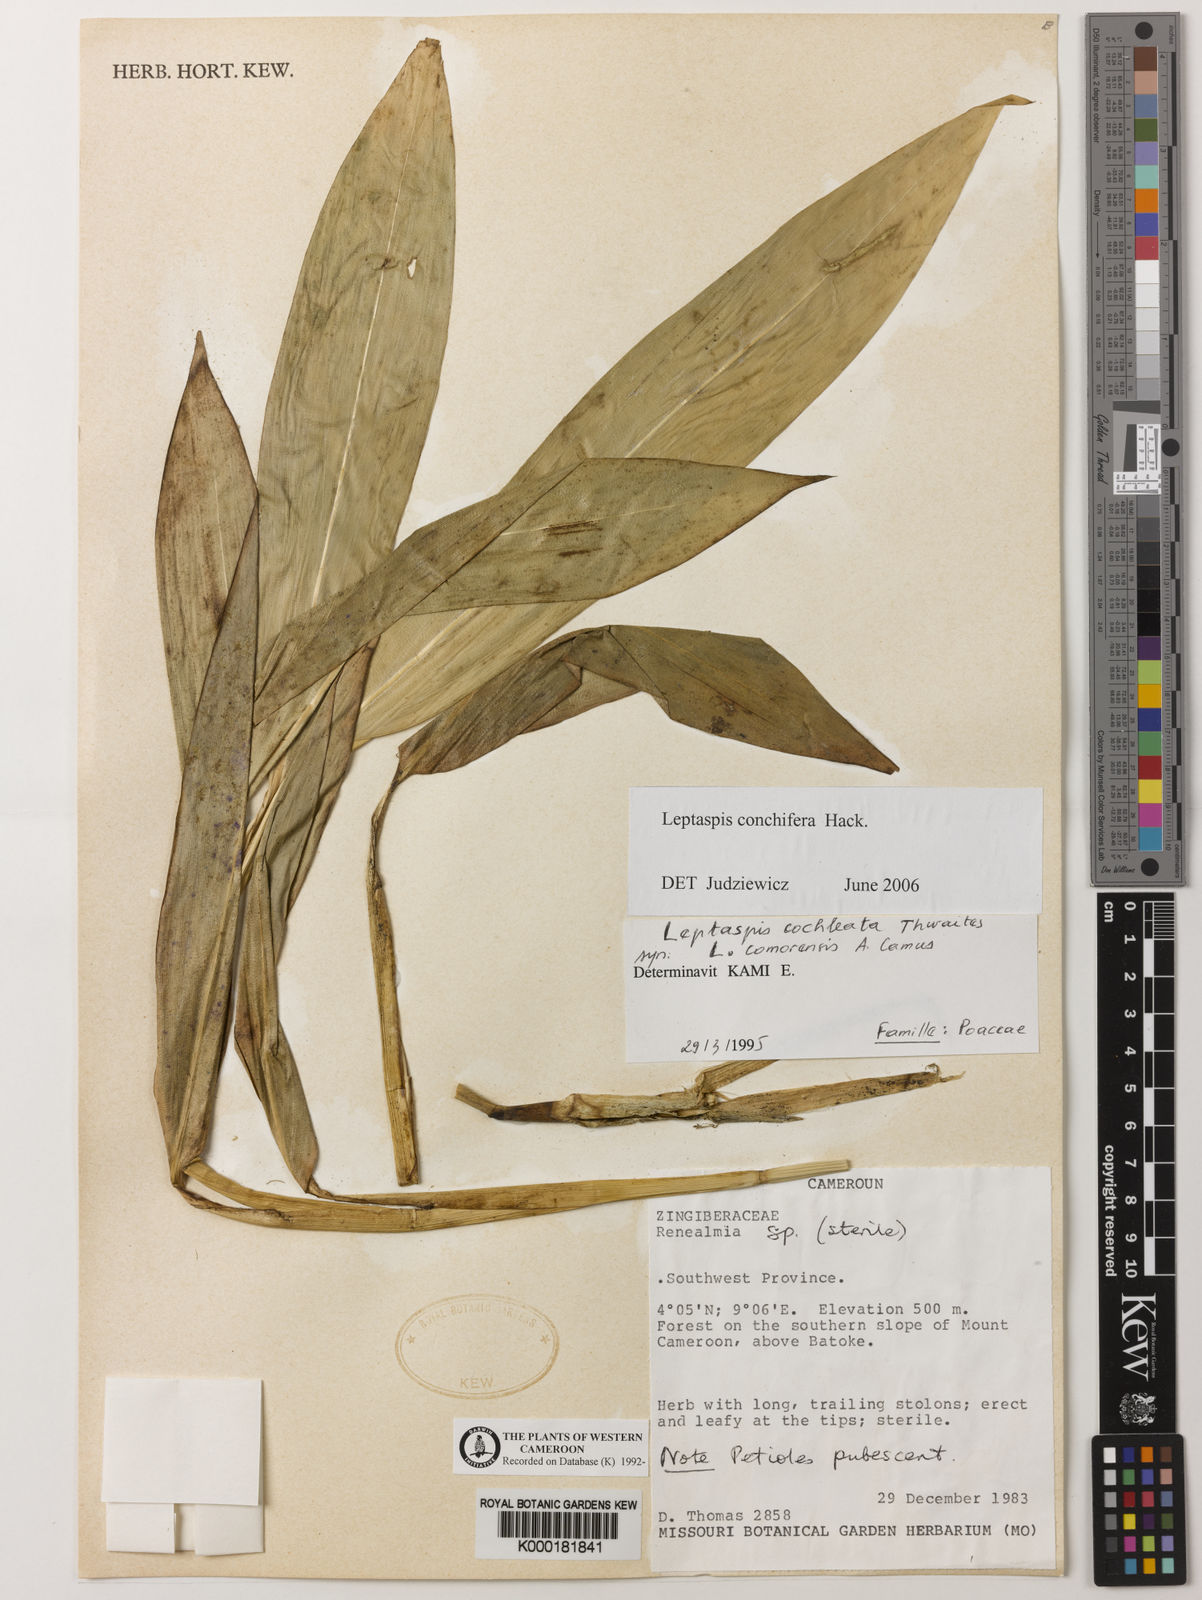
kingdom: Plantae
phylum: Tracheophyta
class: Liliopsida
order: Poales
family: Poaceae
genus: Leptaspis
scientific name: Leptaspis zeylanica
